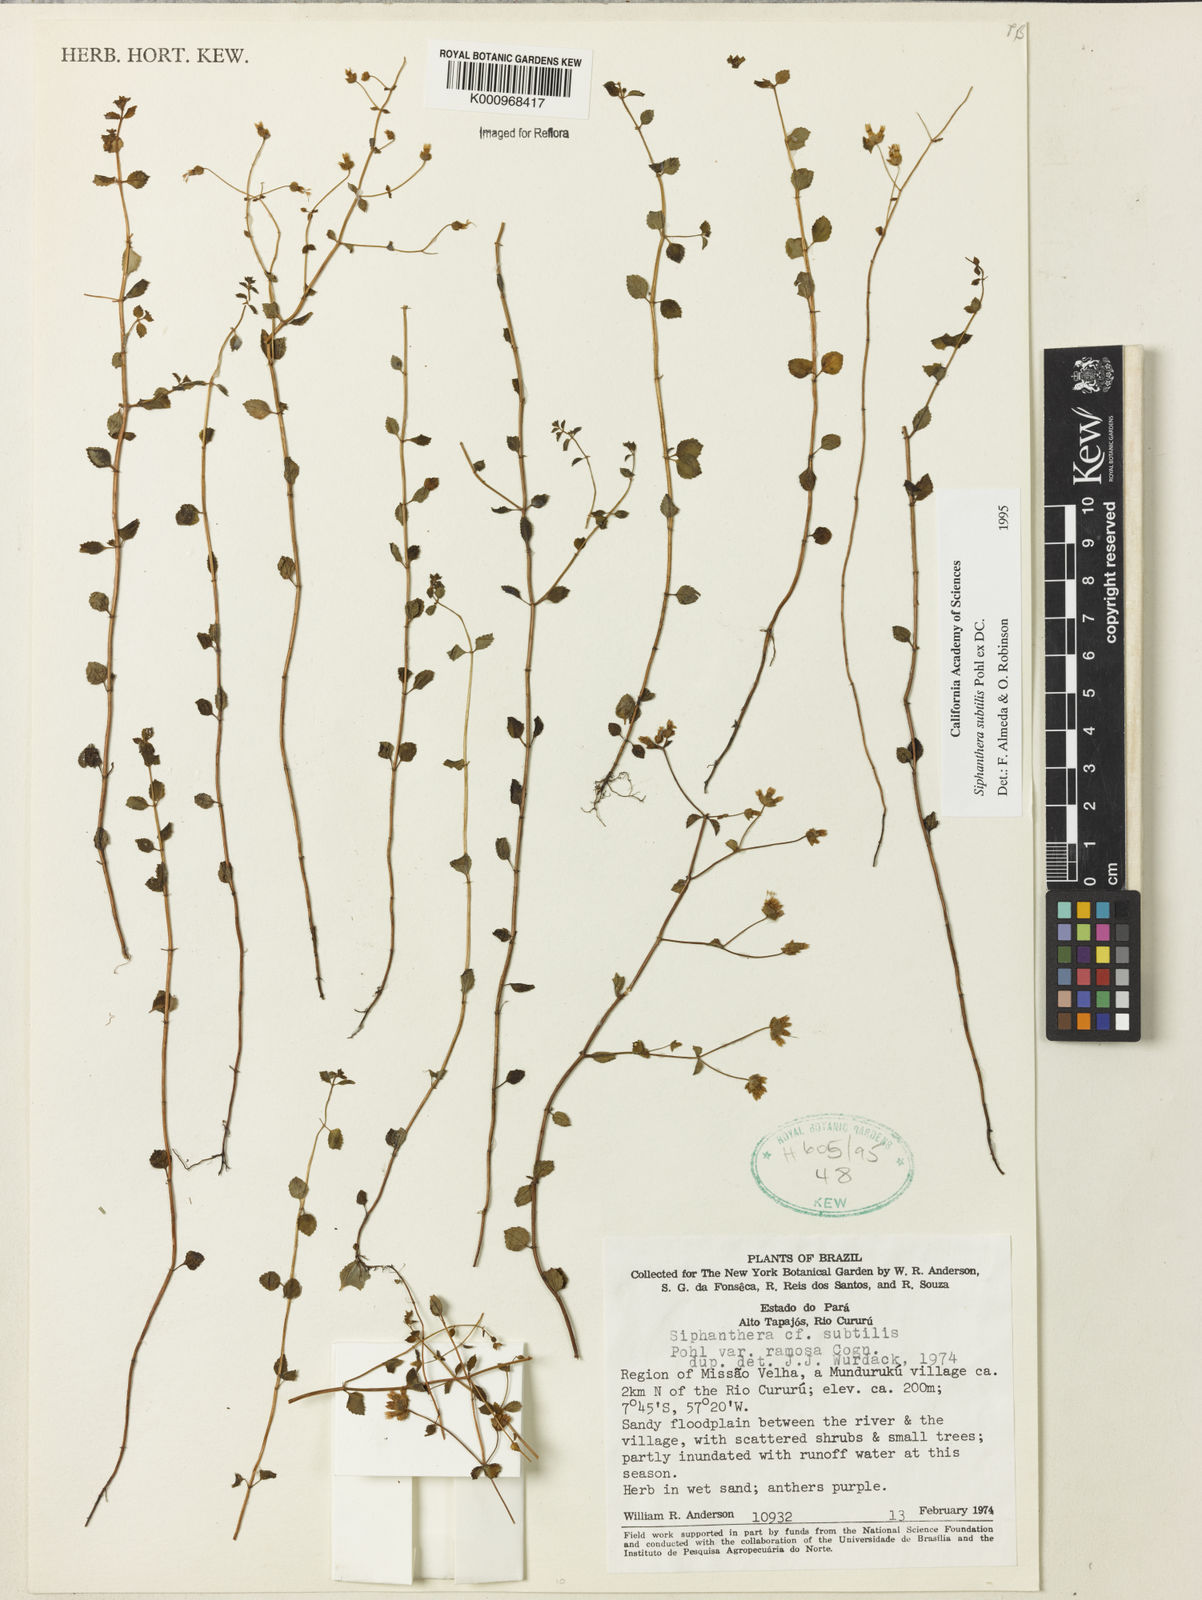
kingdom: Plantae
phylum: Tracheophyta
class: Magnoliopsida
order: Myrtales
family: Melastomataceae
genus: Siphanthera
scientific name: Siphanthera
